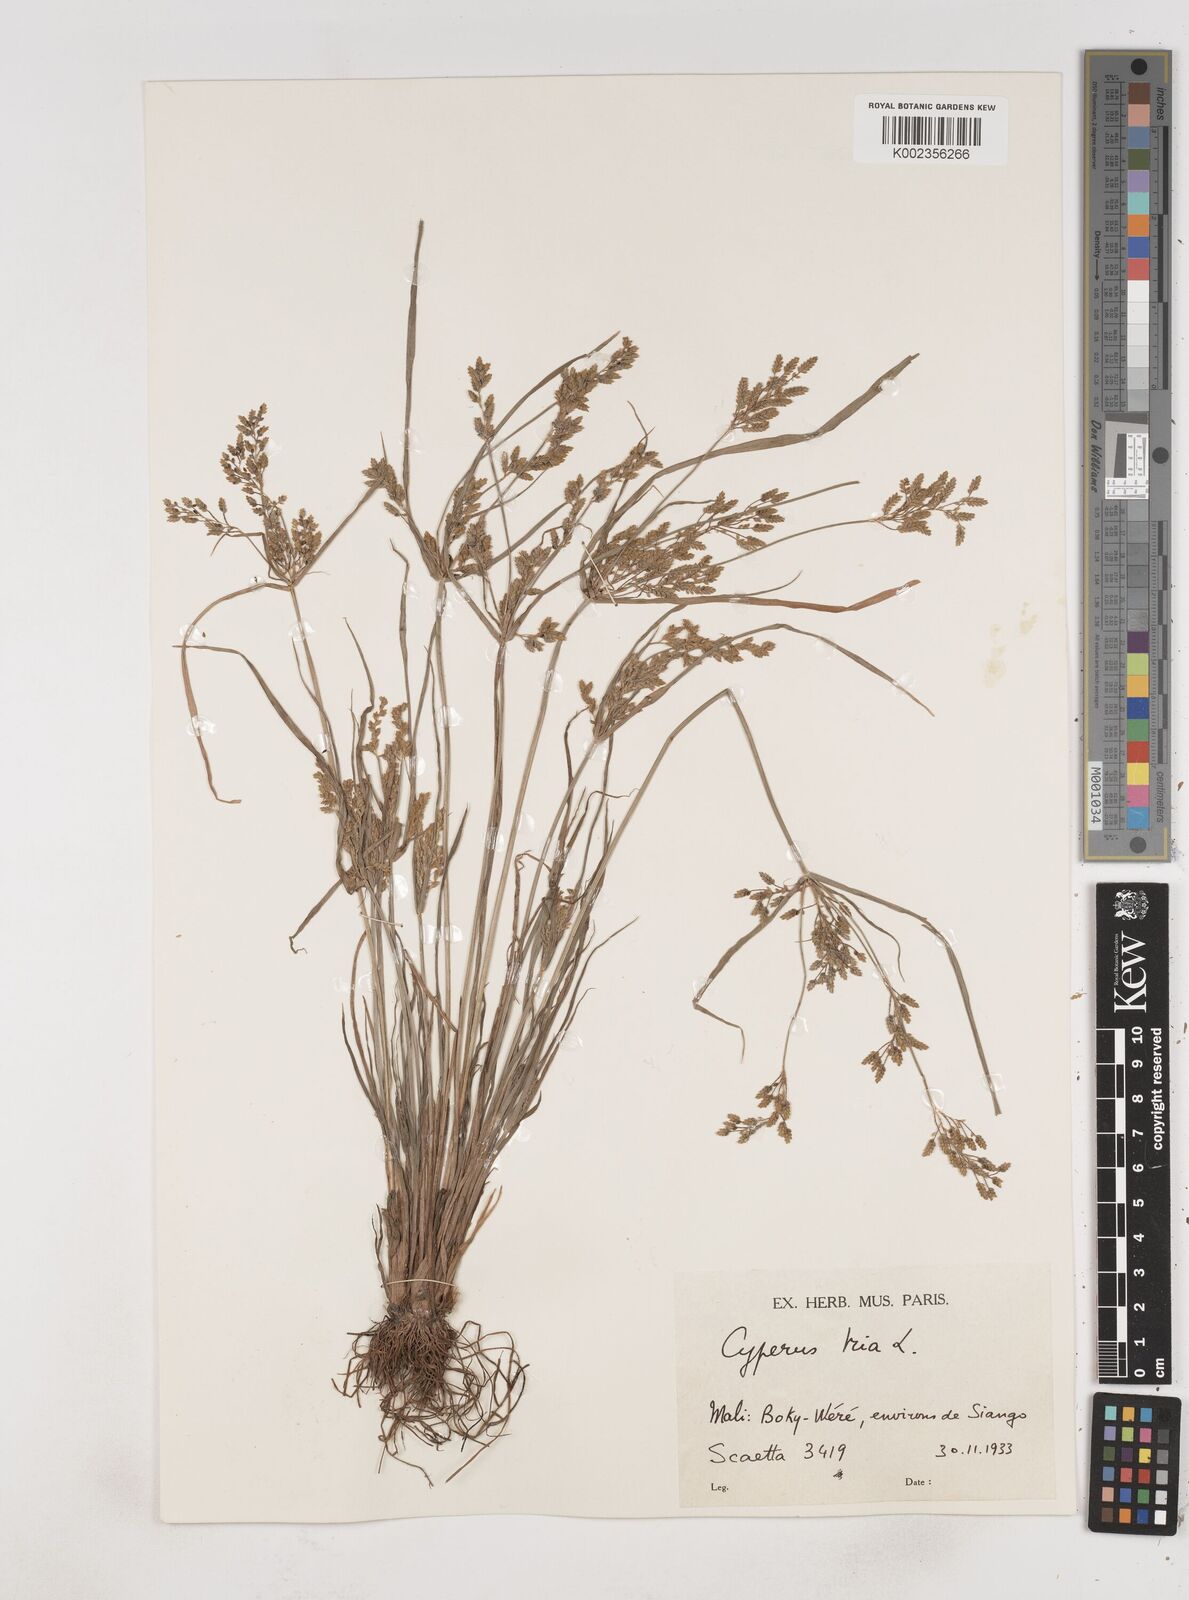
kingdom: Plantae
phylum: Tracheophyta
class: Liliopsida
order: Poales
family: Cyperaceae
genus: Cyperus
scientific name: Cyperus iria
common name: Ricefield flatsedge
